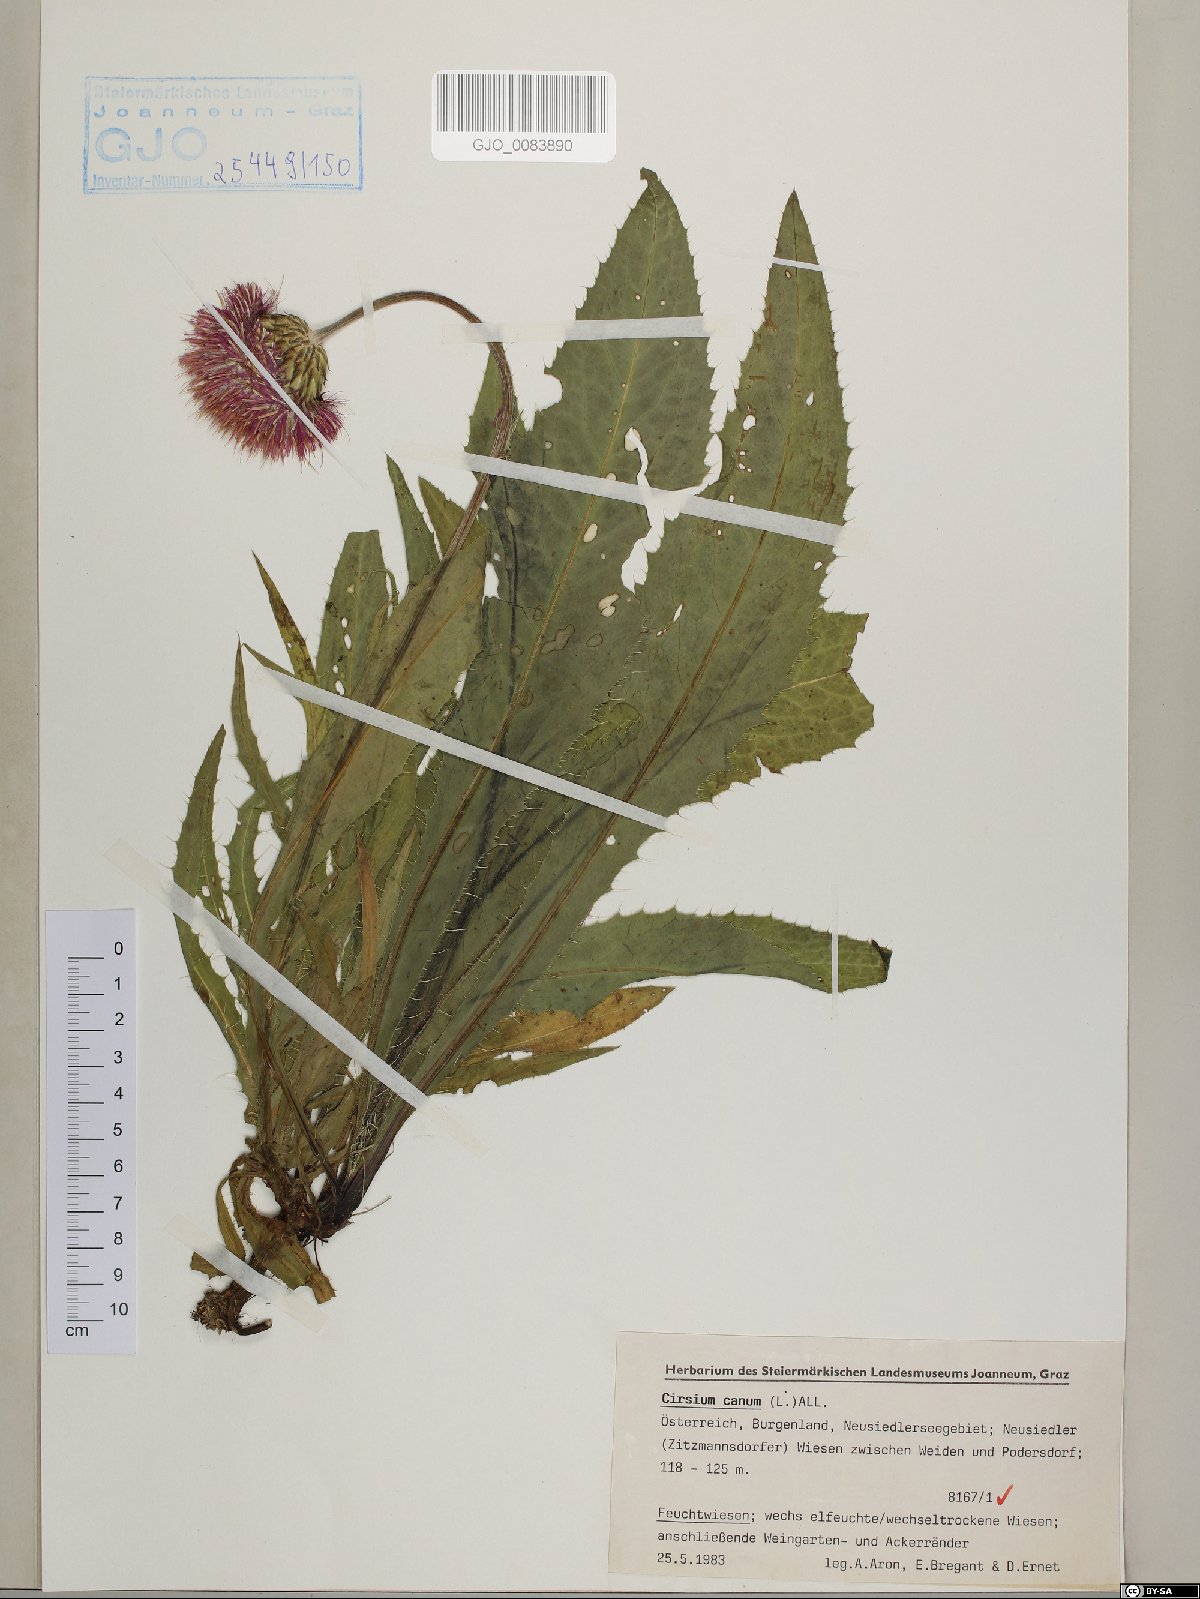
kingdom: Plantae
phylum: Tracheophyta
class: Magnoliopsida
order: Asterales
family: Asteraceae
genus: Cirsium
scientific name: Cirsium canum
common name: Queen anne's thistle
